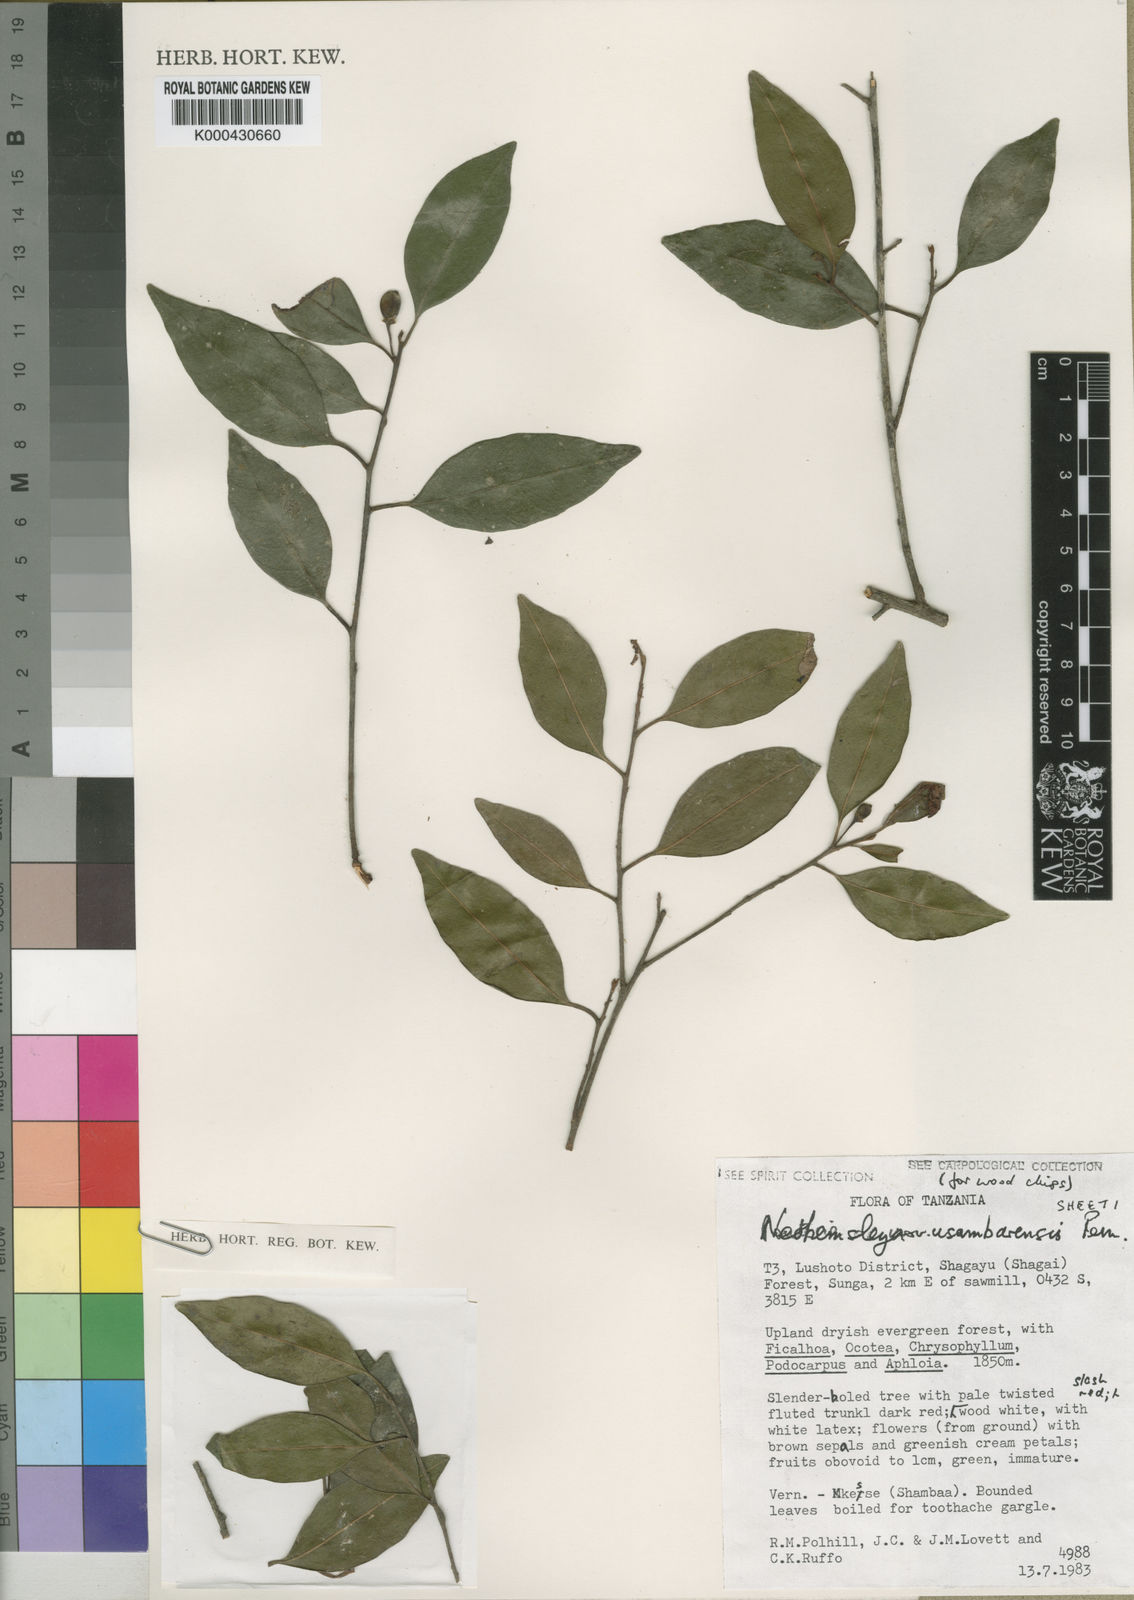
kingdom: Plantae
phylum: Tracheophyta
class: Magnoliopsida
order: Ericales
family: Sapotaceae
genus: Neohemsleya
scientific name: Neohemsleya usambarensis
